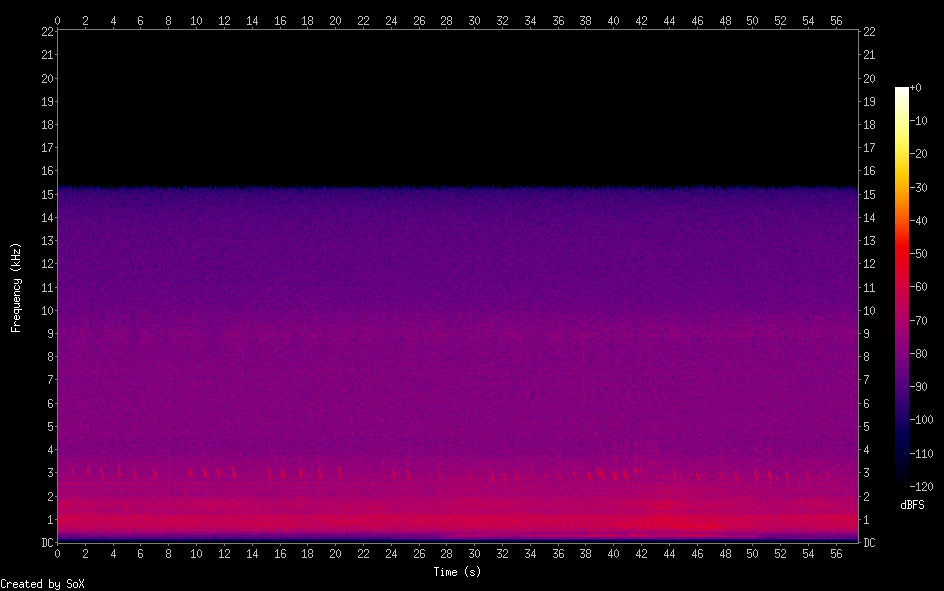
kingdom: Animalia
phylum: Chordata
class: Aves
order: Charadriiformes
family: Laridae
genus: Sterna
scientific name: Sterna
